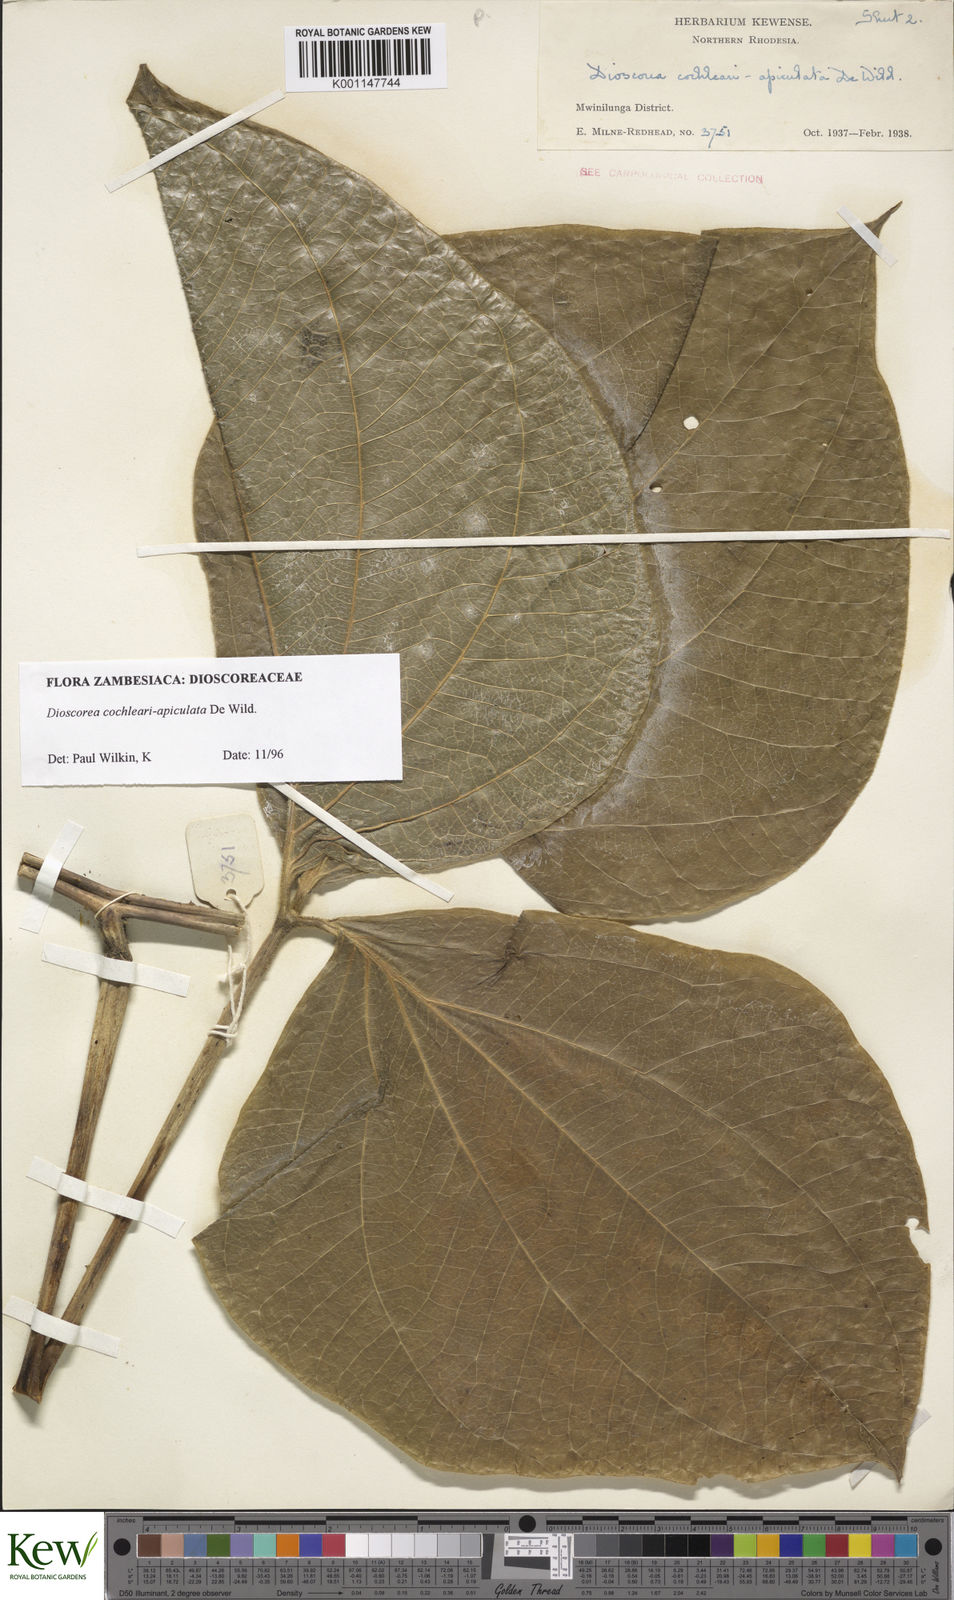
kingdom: Plantae
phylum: Tracheophyta
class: Liliopsida
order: Dioscoreales
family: Dioscoreaceae
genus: Dioscorea
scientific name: Dioscorea cochleariapiculata
